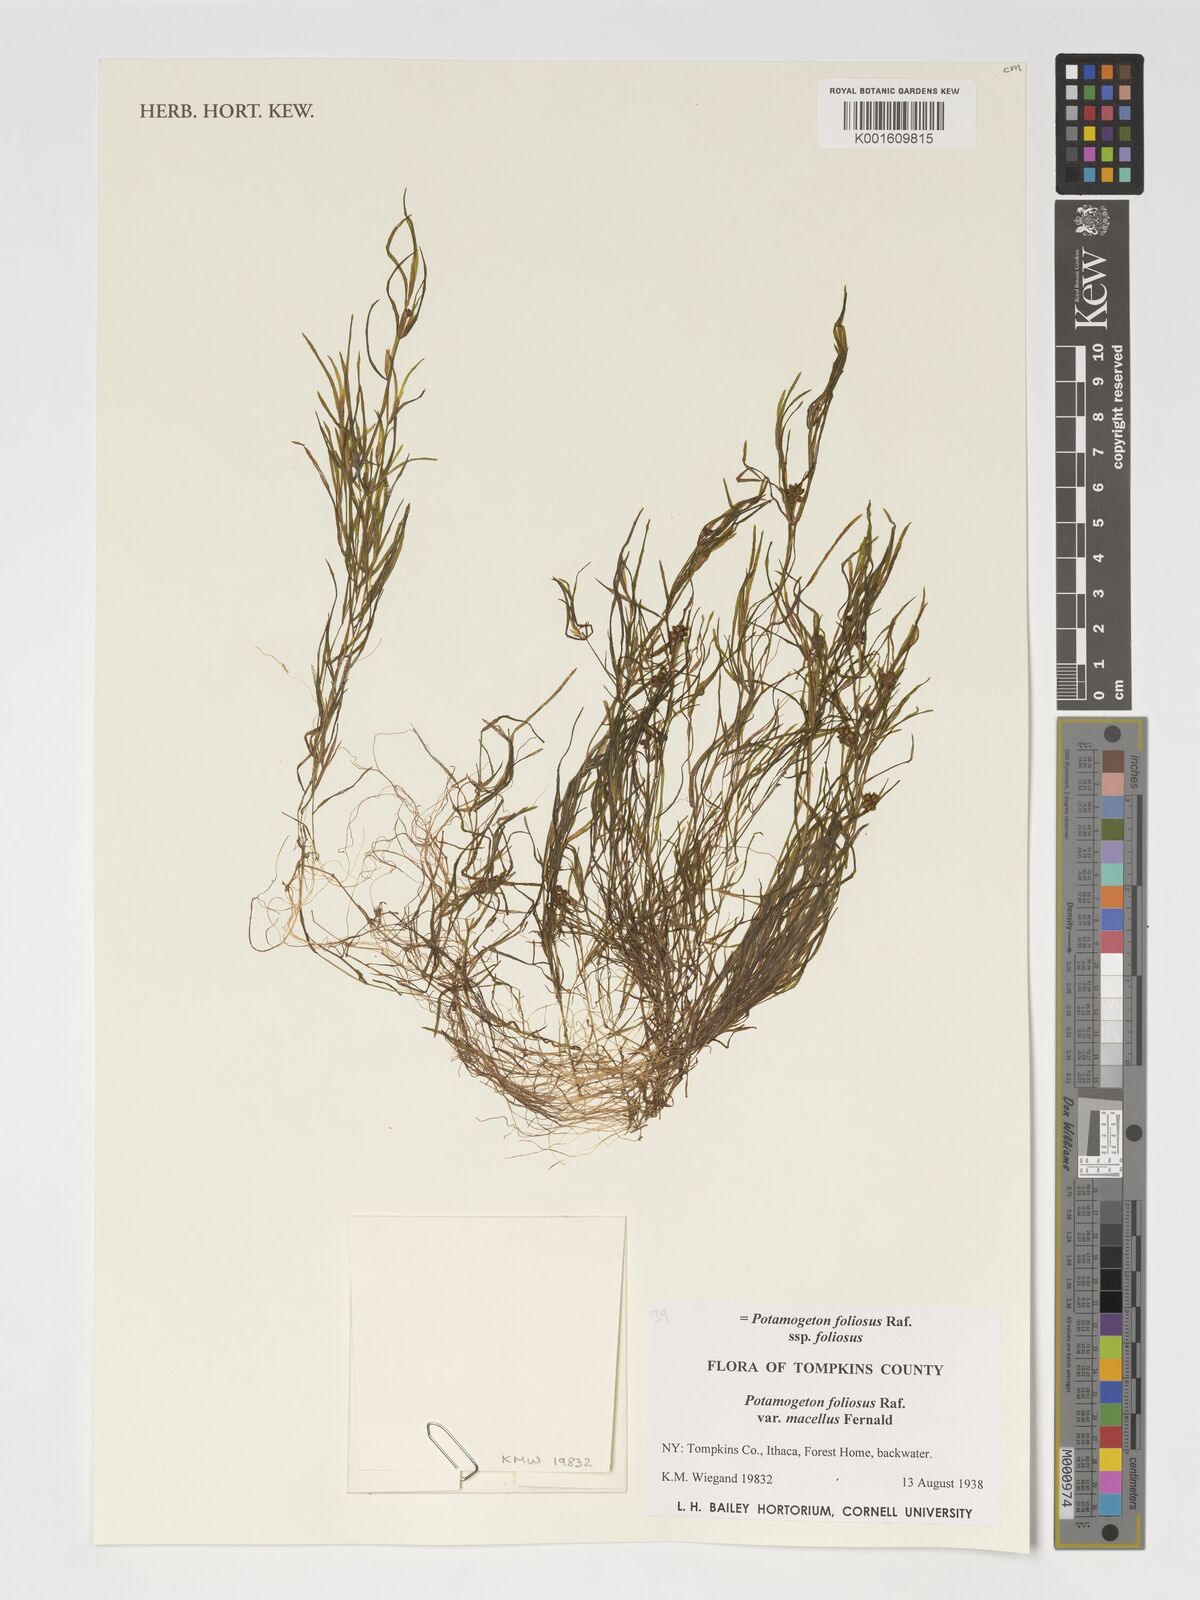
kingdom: Plantae
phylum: Tracheophyta
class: Liliopsida
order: Alismatales
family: Potamogetonaceae
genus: Potamogeton
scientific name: Potamogeton foliosus
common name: Leafy pondweed
